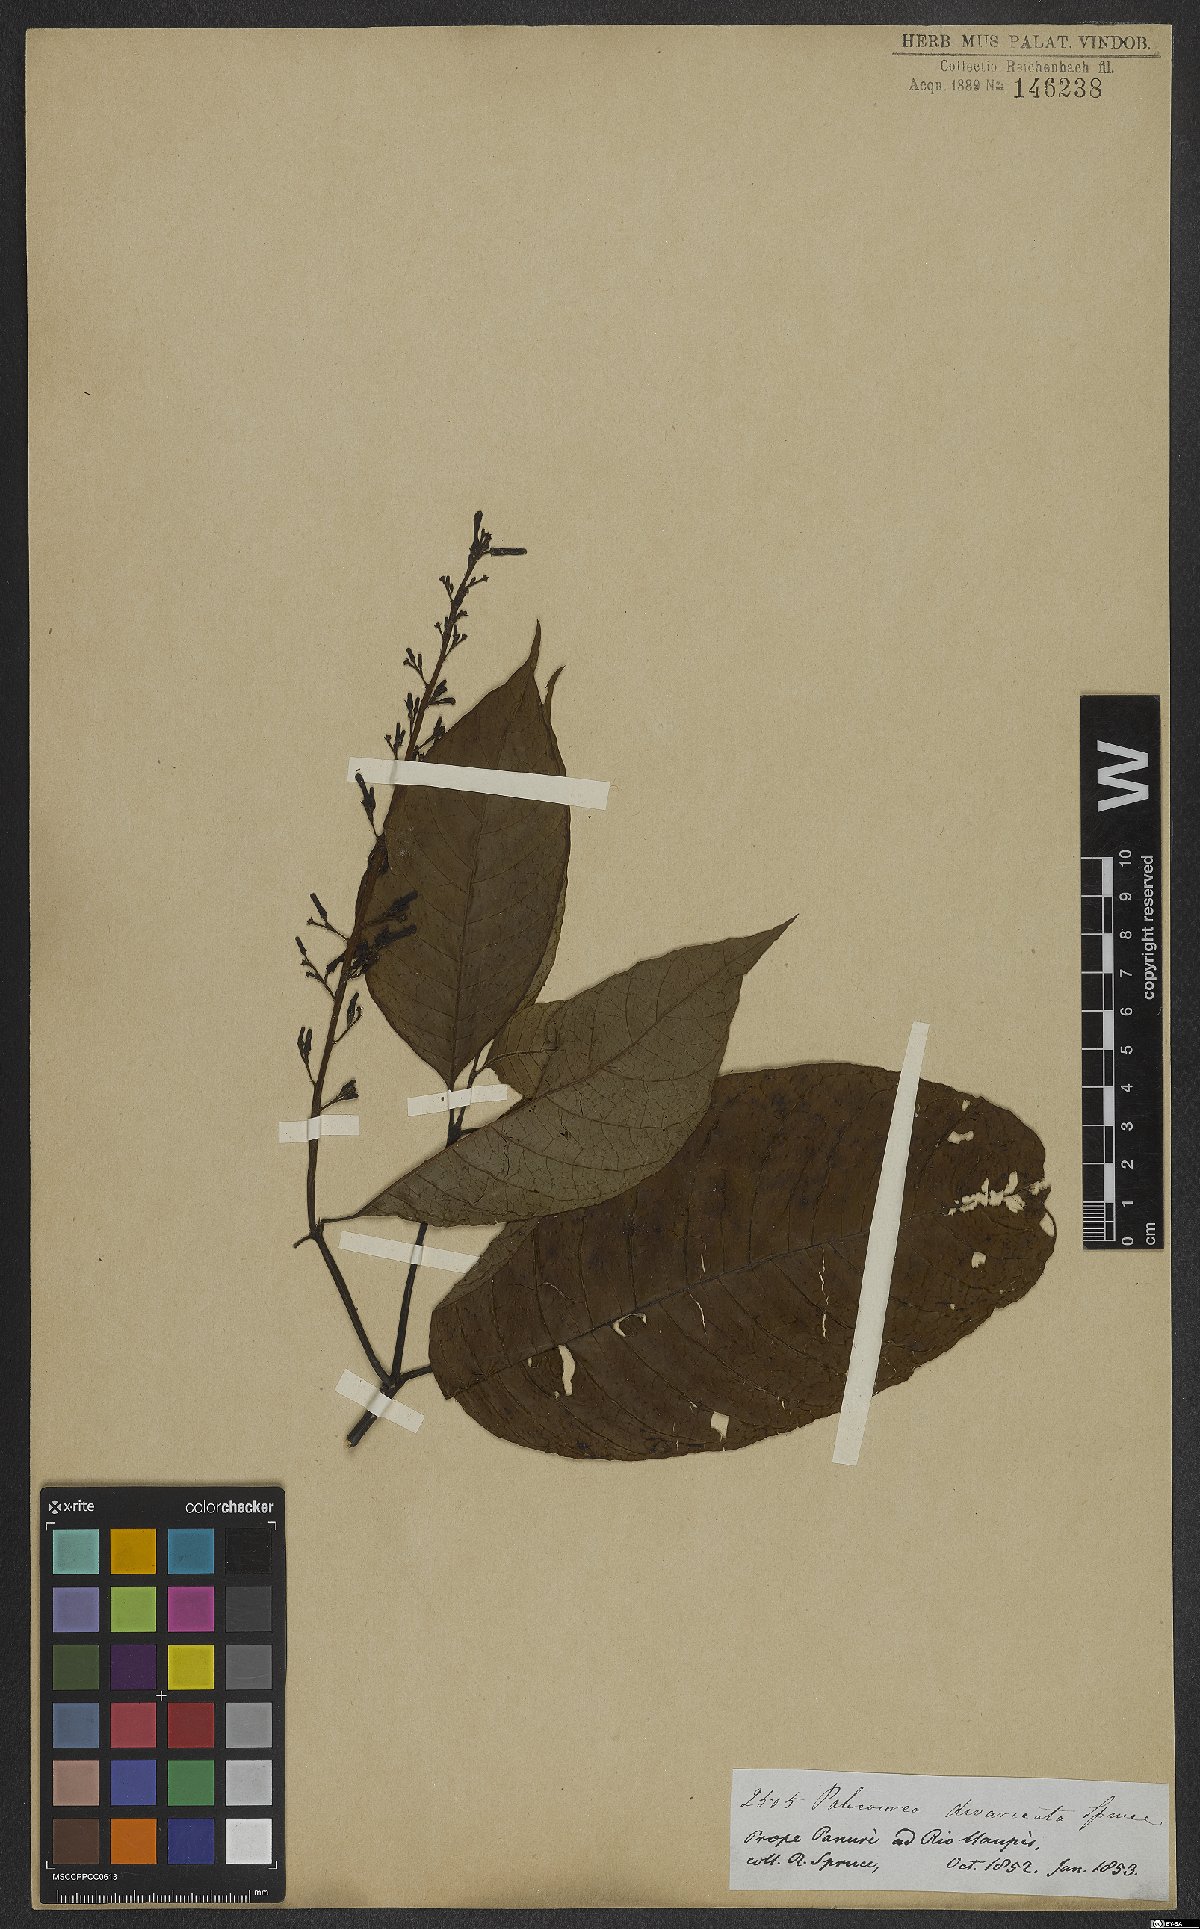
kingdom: Plantae
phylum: Tracheophyta
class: Magnoliopsida
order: Gentianales
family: Rubiaceae
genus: Palicourea
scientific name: Palicourea divaricata
